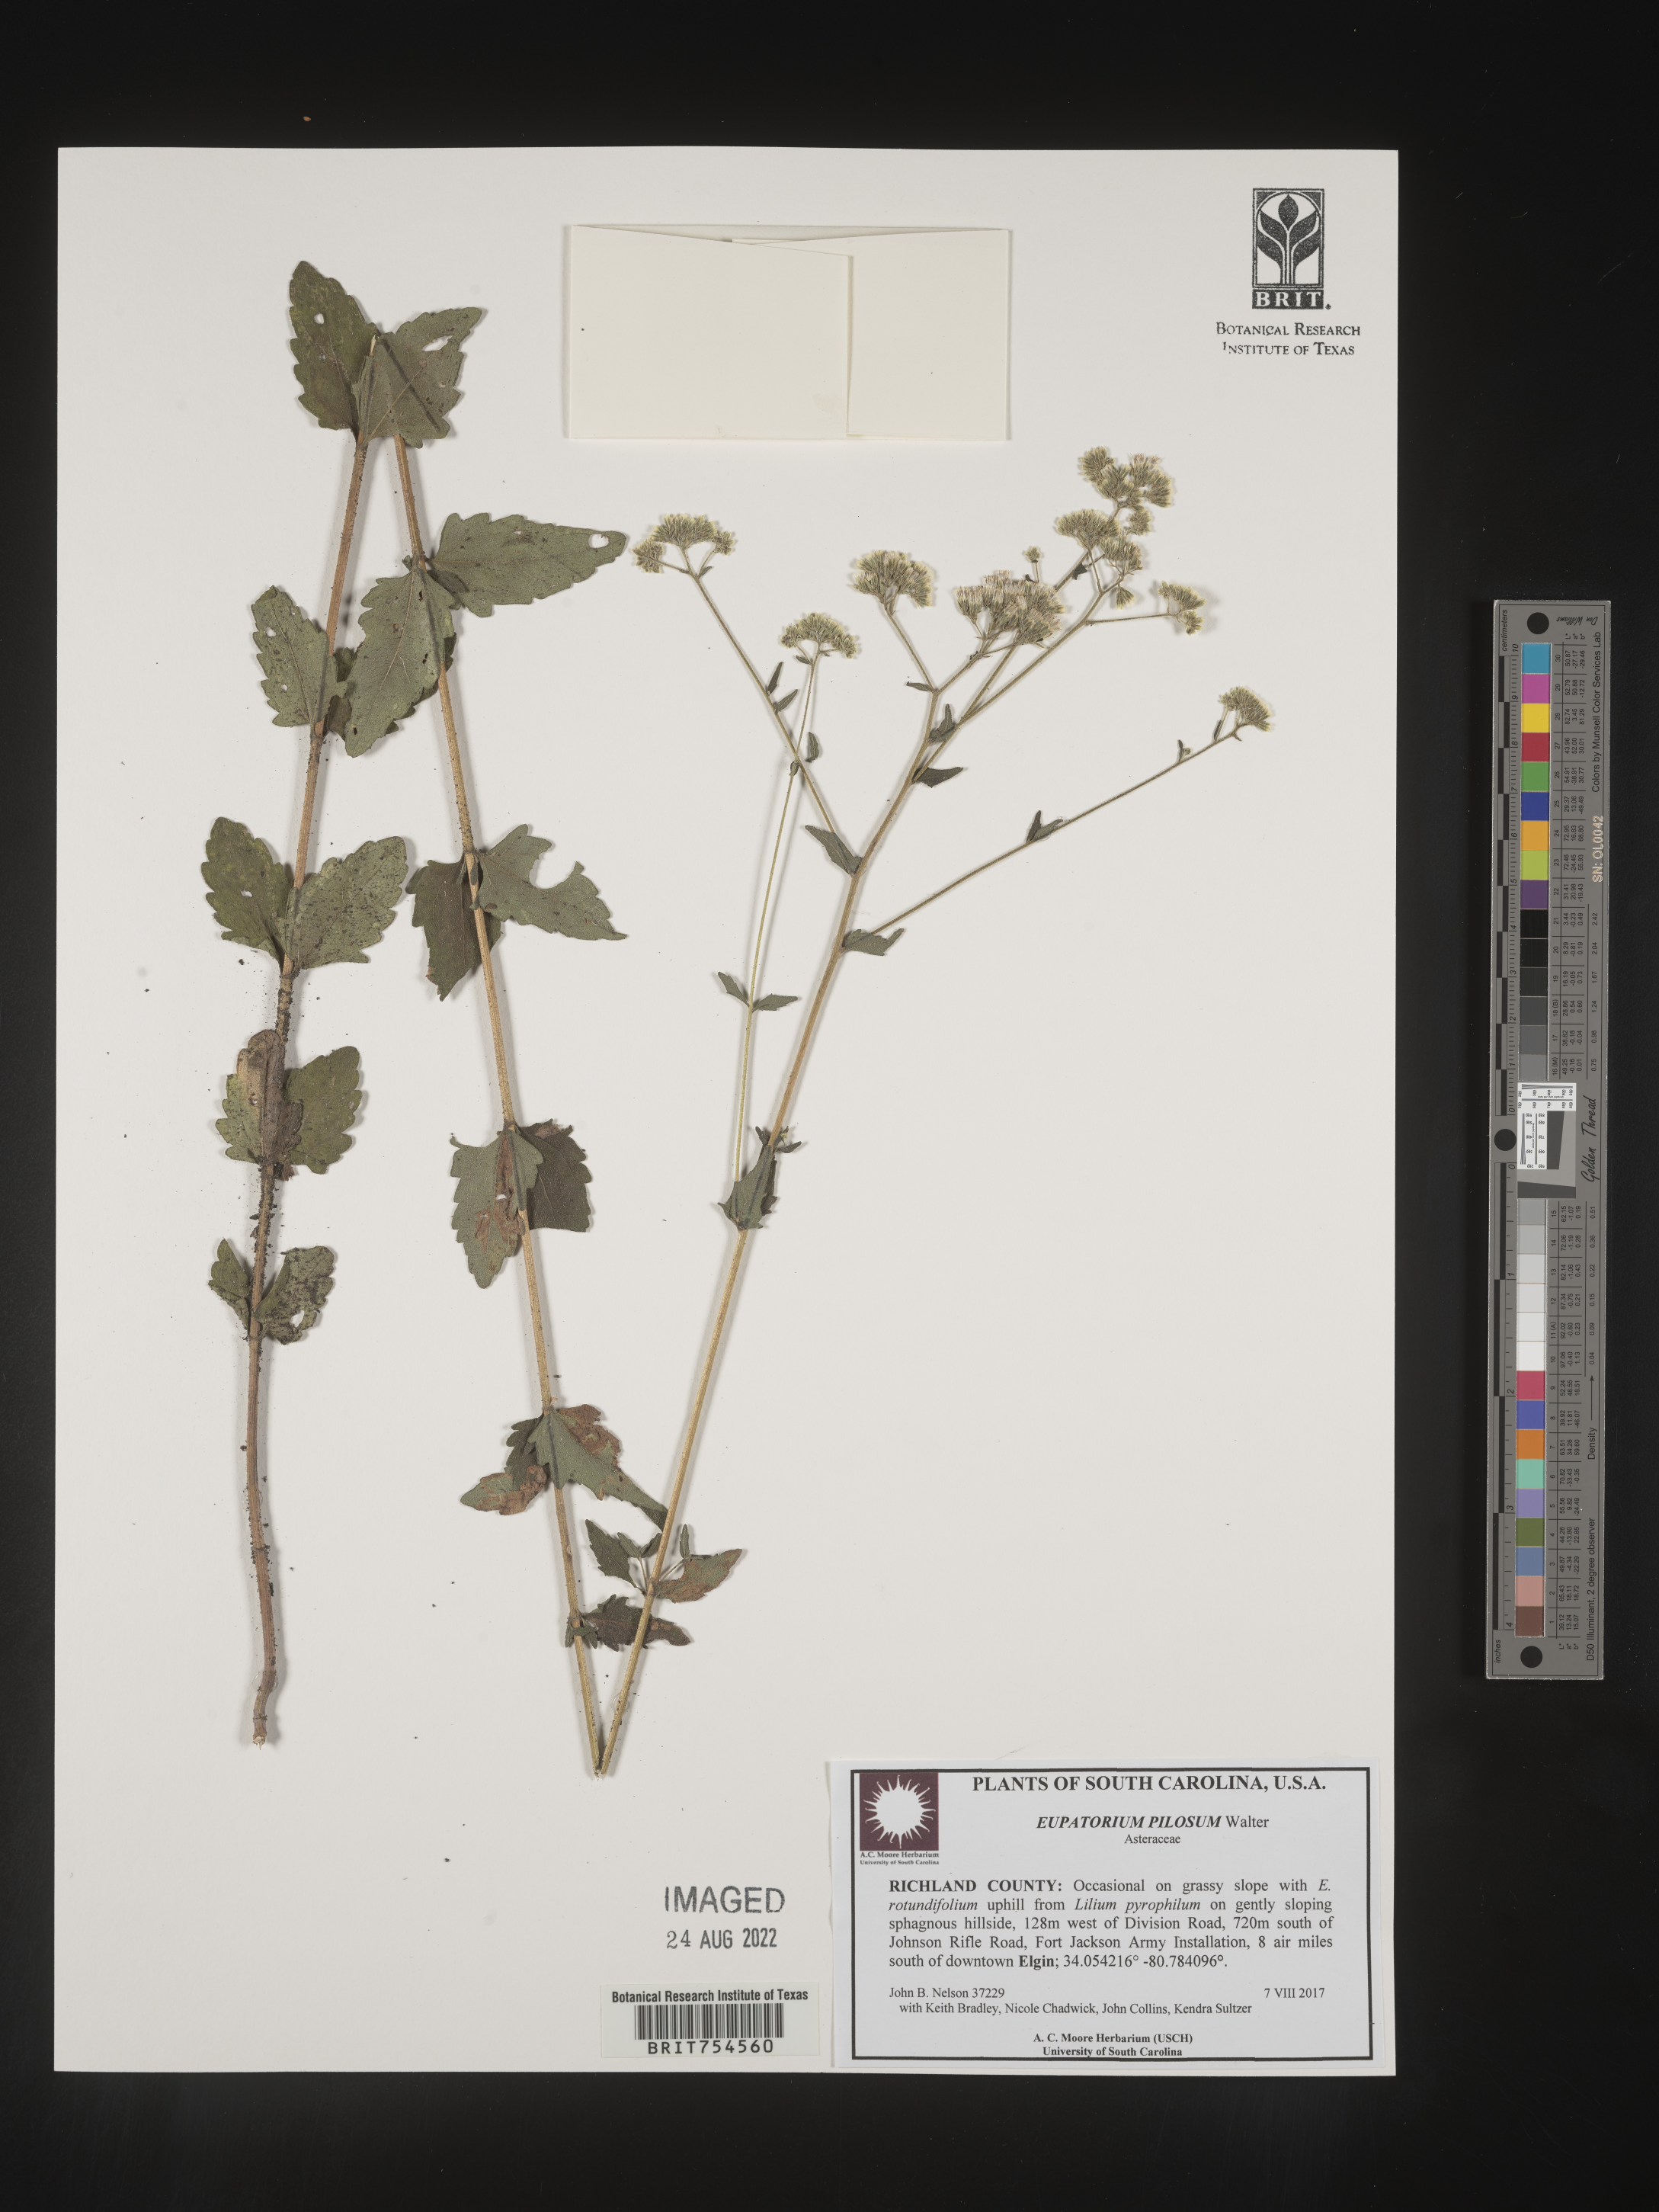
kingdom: Plantae
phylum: Tracheophyta
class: Magnoliopsida
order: Asterales
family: Asteraceae
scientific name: Asteraceae
